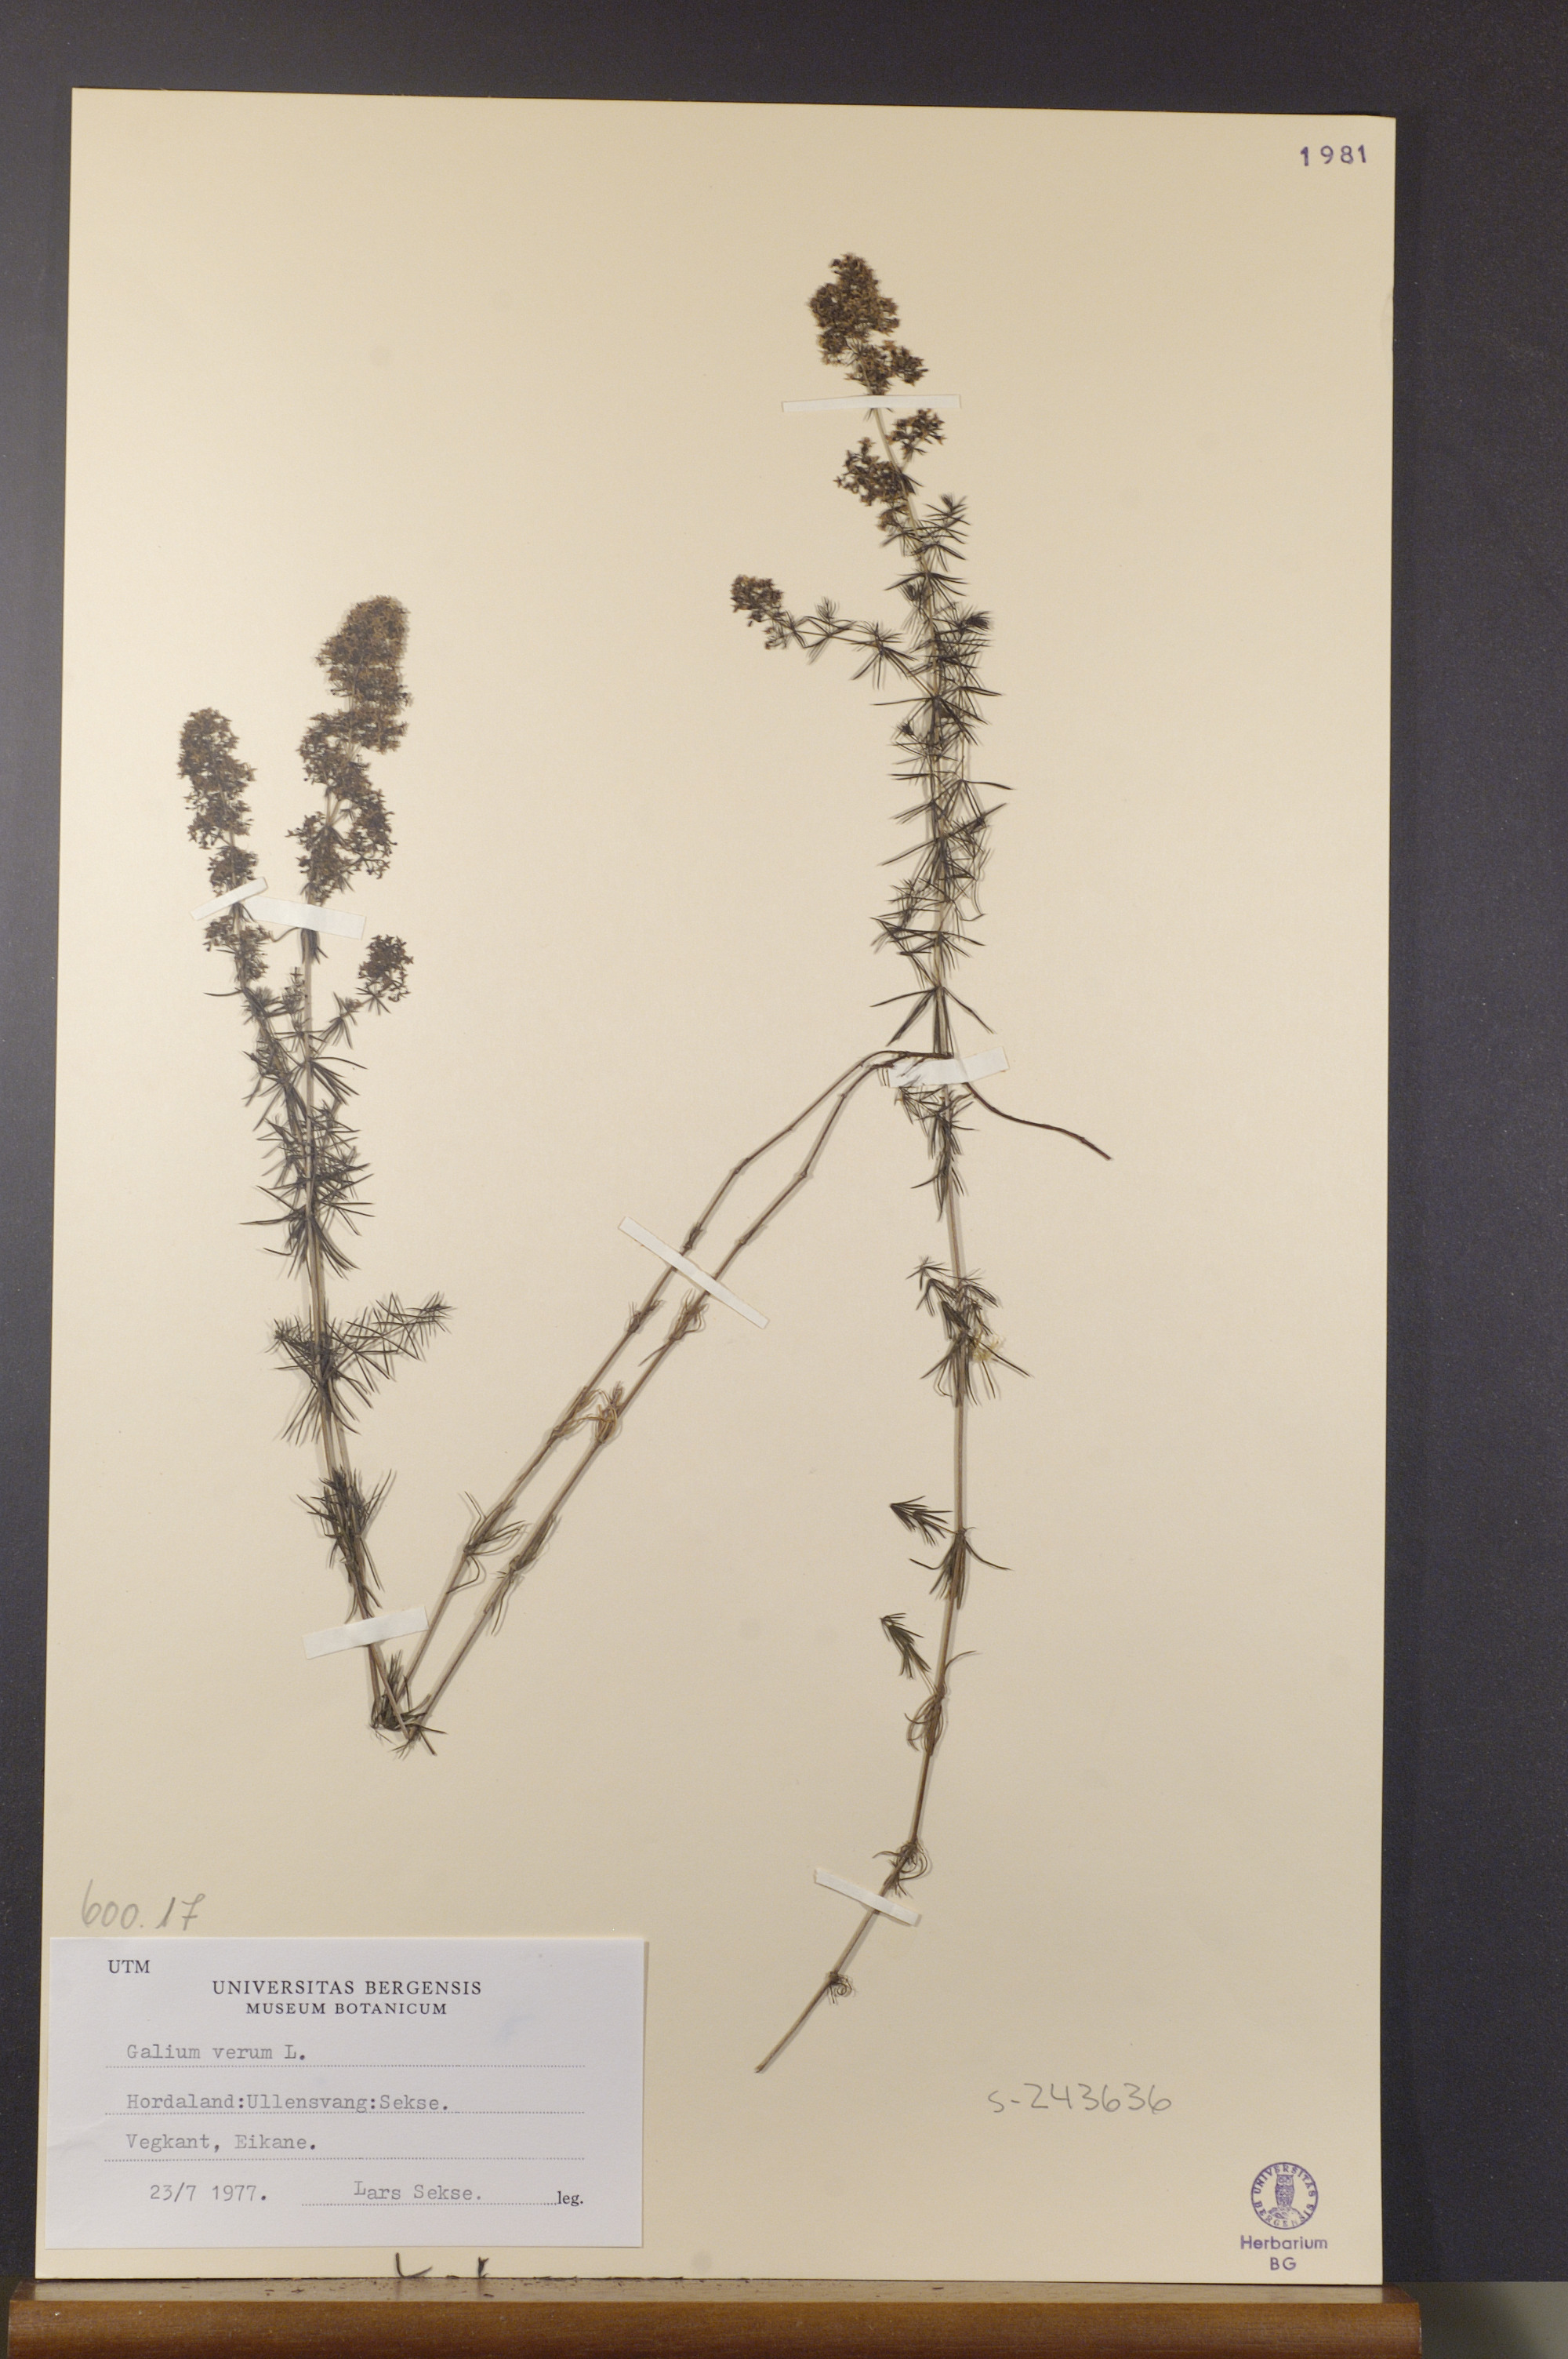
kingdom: Plantae
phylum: Tracheophyta
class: Magnoliopsida
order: Gentianales
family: Rubiaceae
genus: Galium
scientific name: Galium verum
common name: Lady's bedstraw
